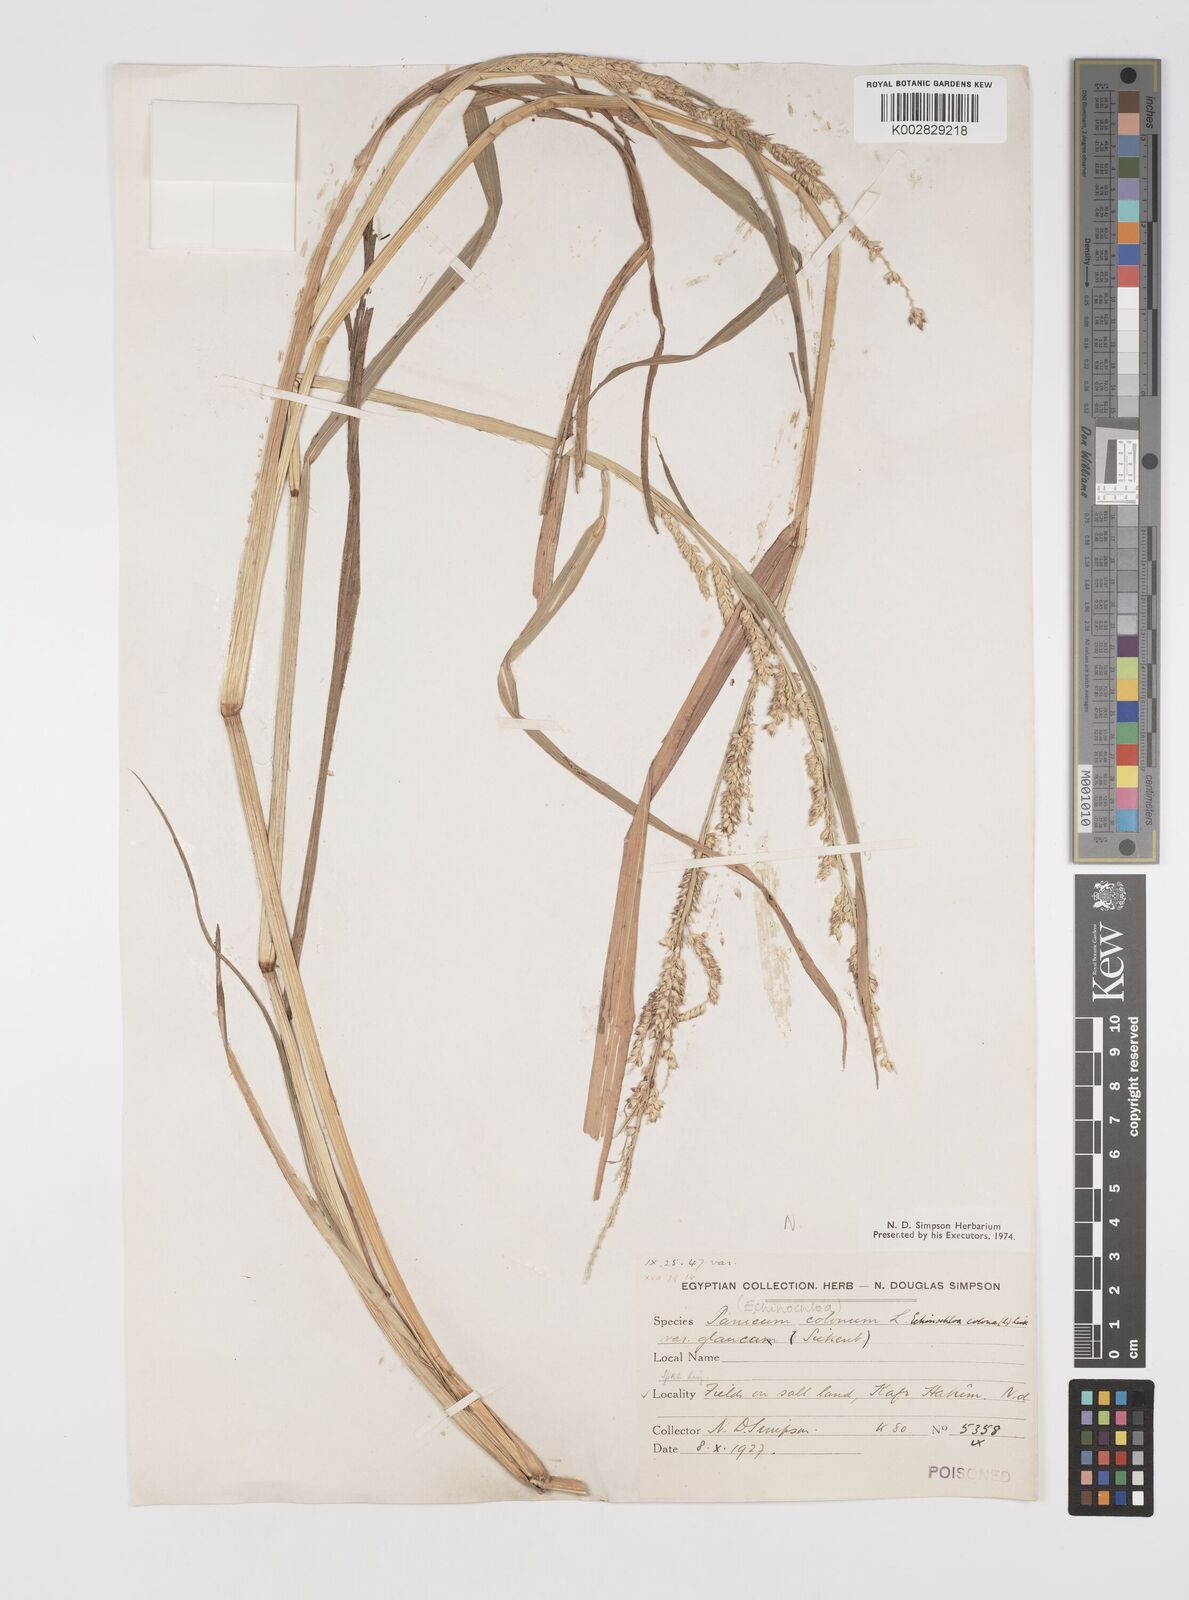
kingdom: Plantae
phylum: Tracheophyta
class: Liliopsida
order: Poales
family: Poaceae
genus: Echinochloa
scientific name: Echinochloa crus-galli
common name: Cockspur
